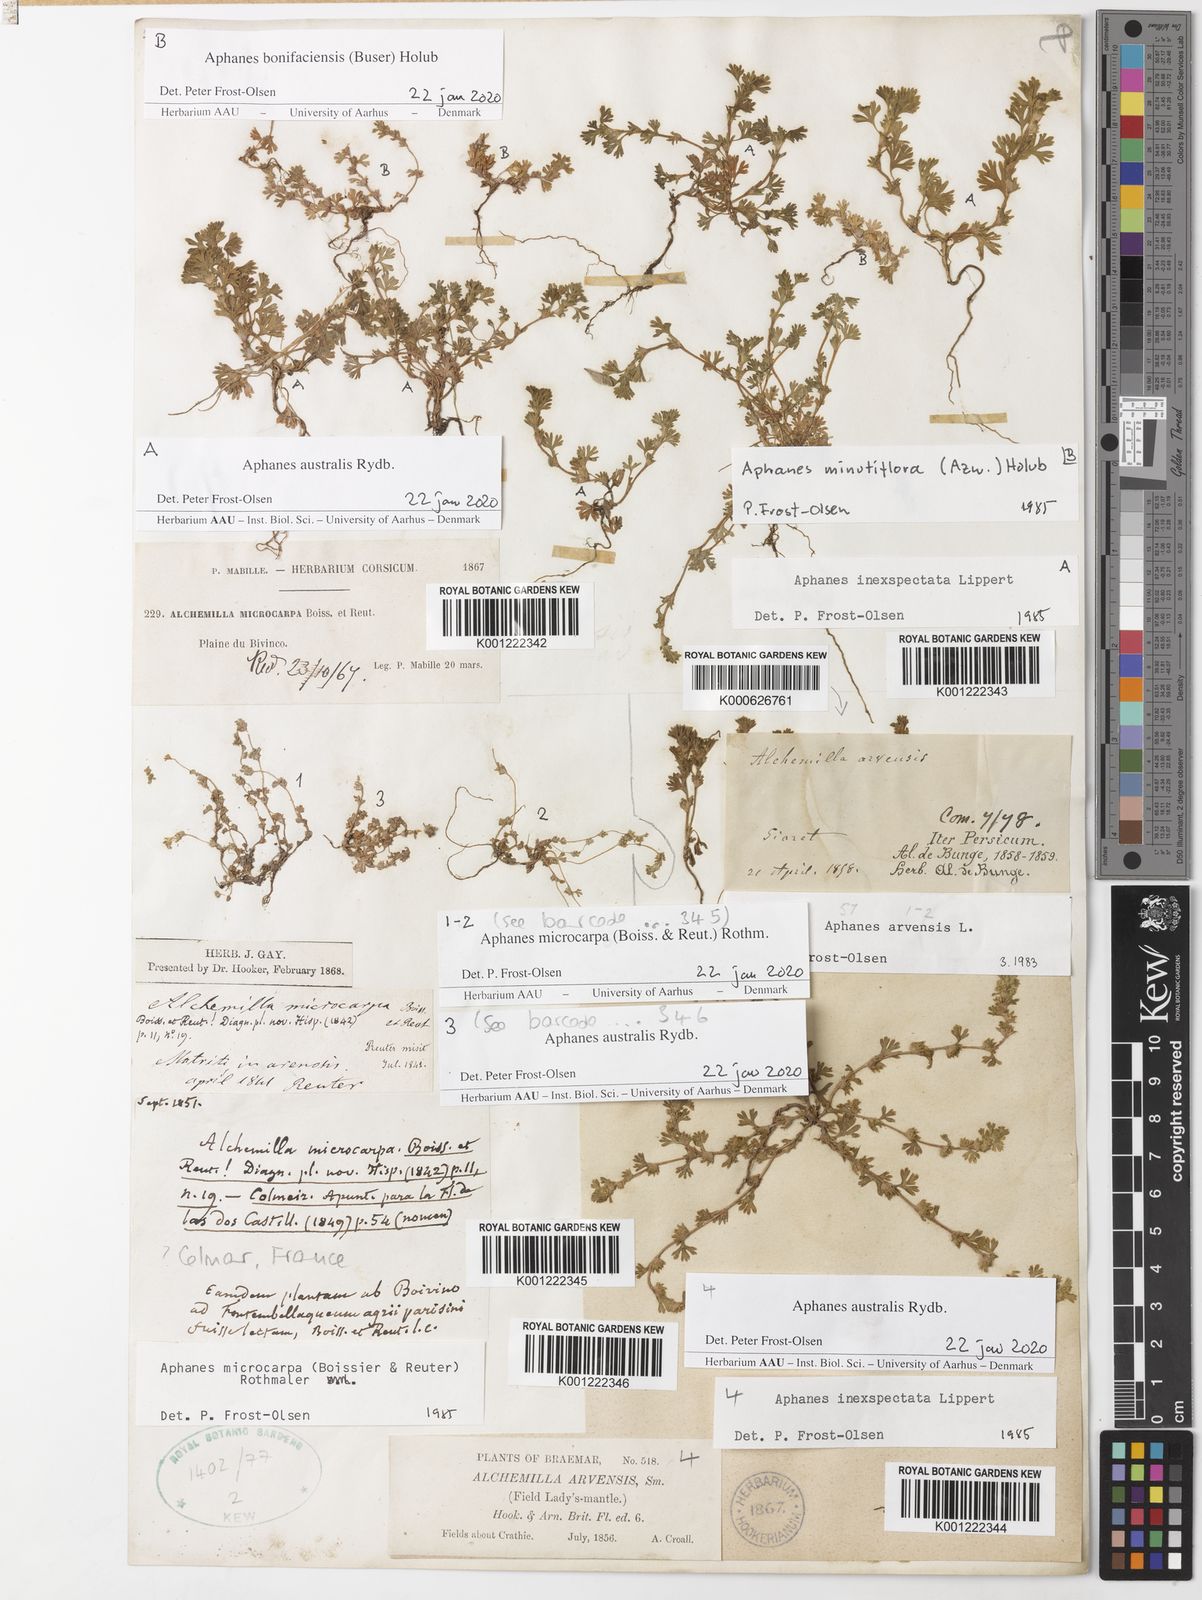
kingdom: Plantae
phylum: Tracheophyta
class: Magnoliopsida
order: Rosales
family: Rosaceae
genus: Aphanes
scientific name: Aphanes microcarpa
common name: Slender parsley piert
